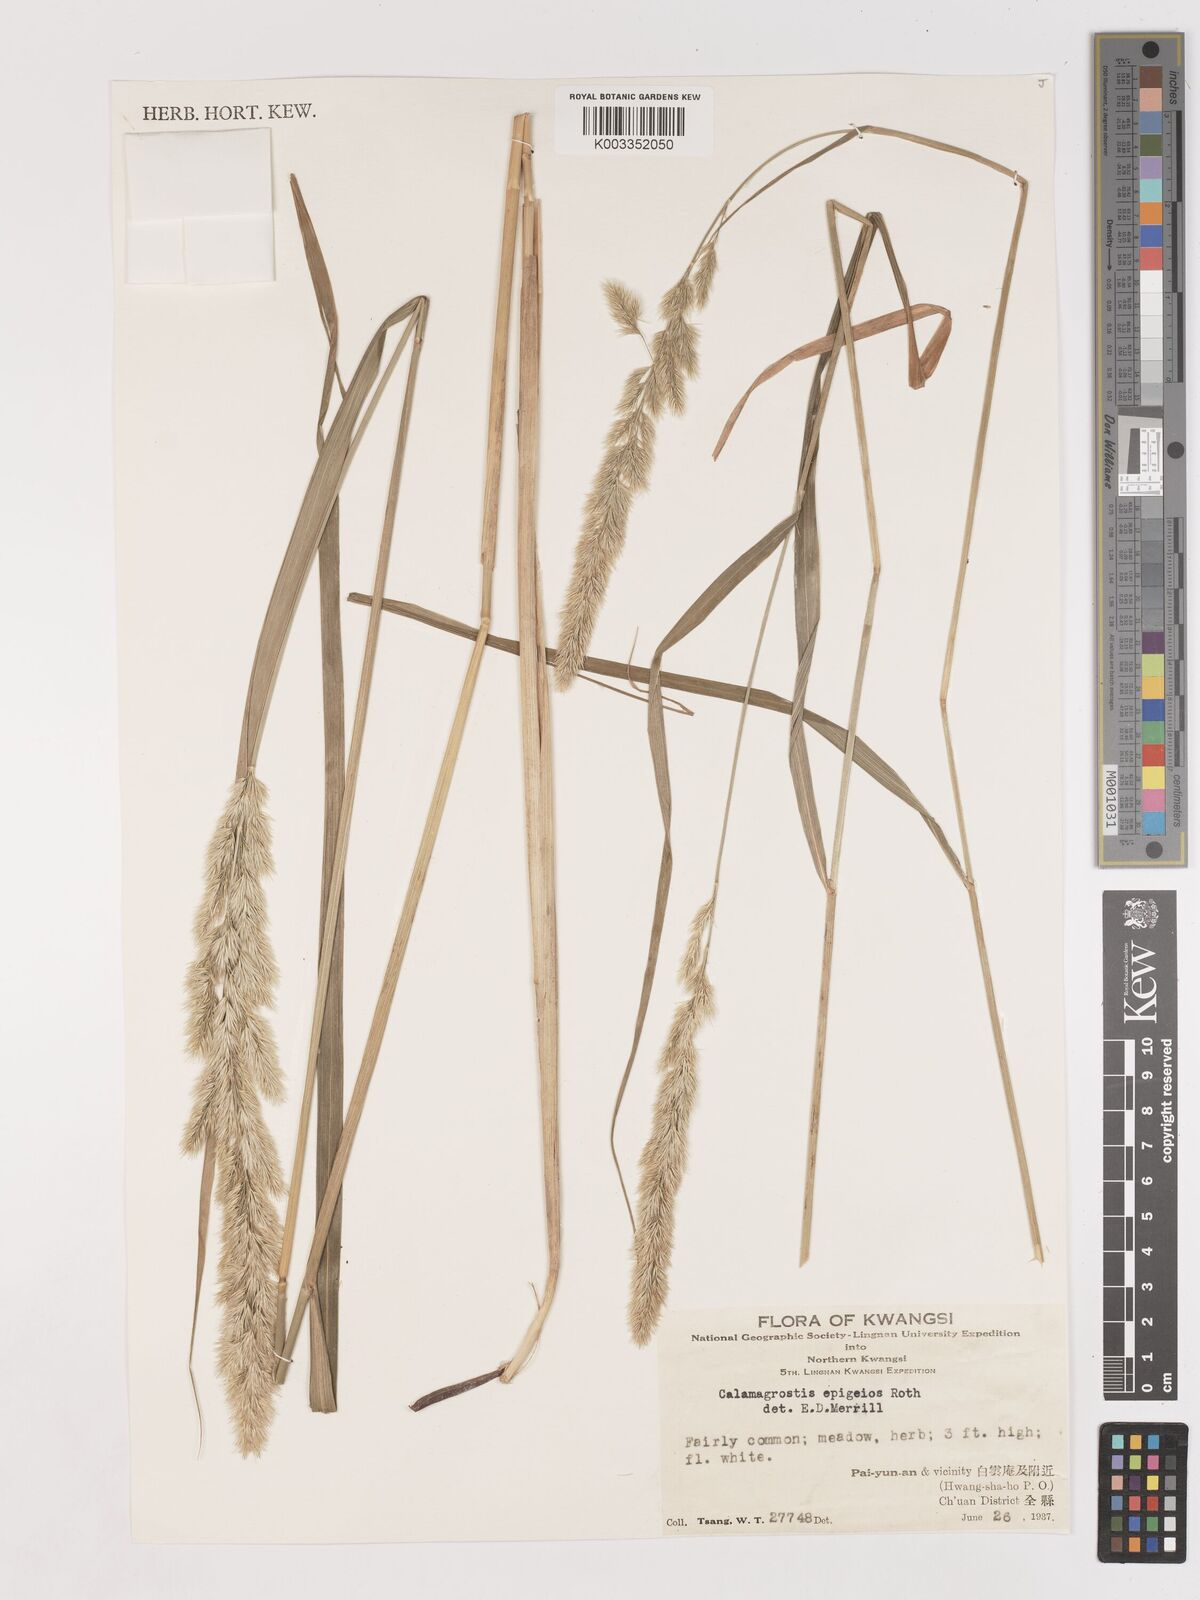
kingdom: Plantae
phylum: Tracheophyta
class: Liliopsida
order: Poales
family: Poaceae
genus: Calamagrostis
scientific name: Calamagrostis epigejos
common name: Wood small-reed
